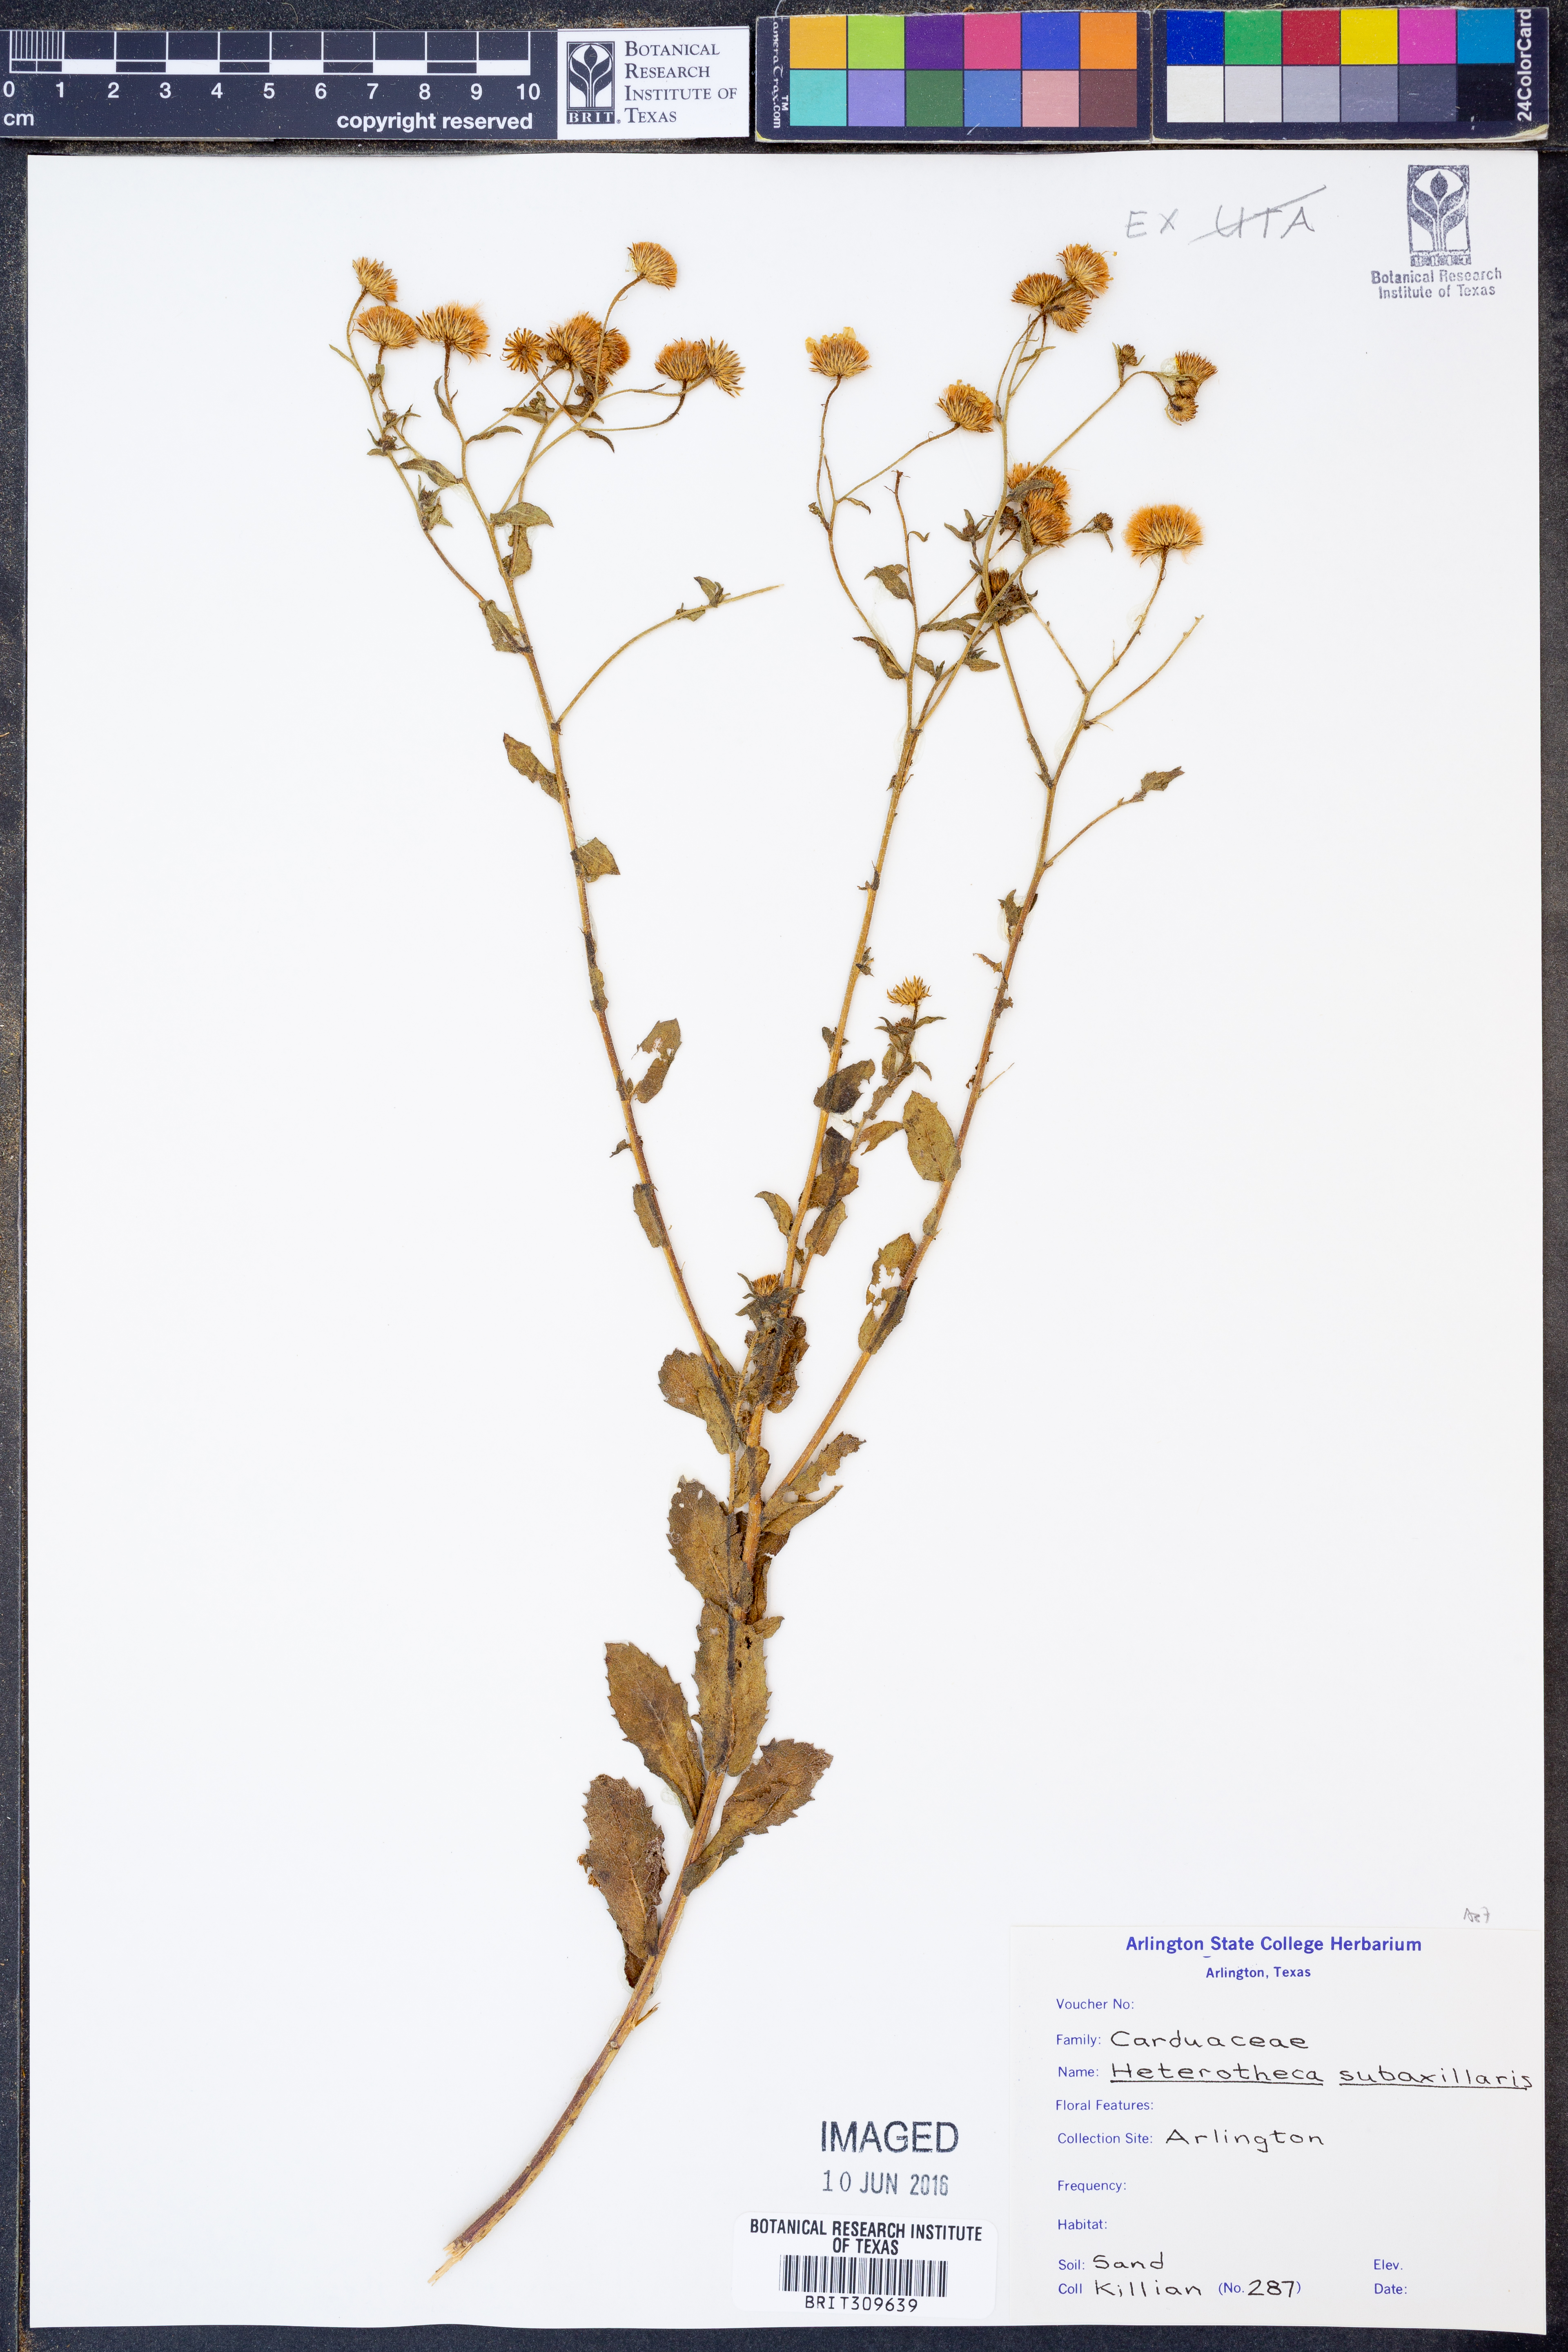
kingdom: Plantae
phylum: Tracheophyta
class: Magnoliopsida
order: Asterales
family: Asteraceae
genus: Heterotheca
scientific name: Heterotheca subaxillaris
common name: Camphorweed
